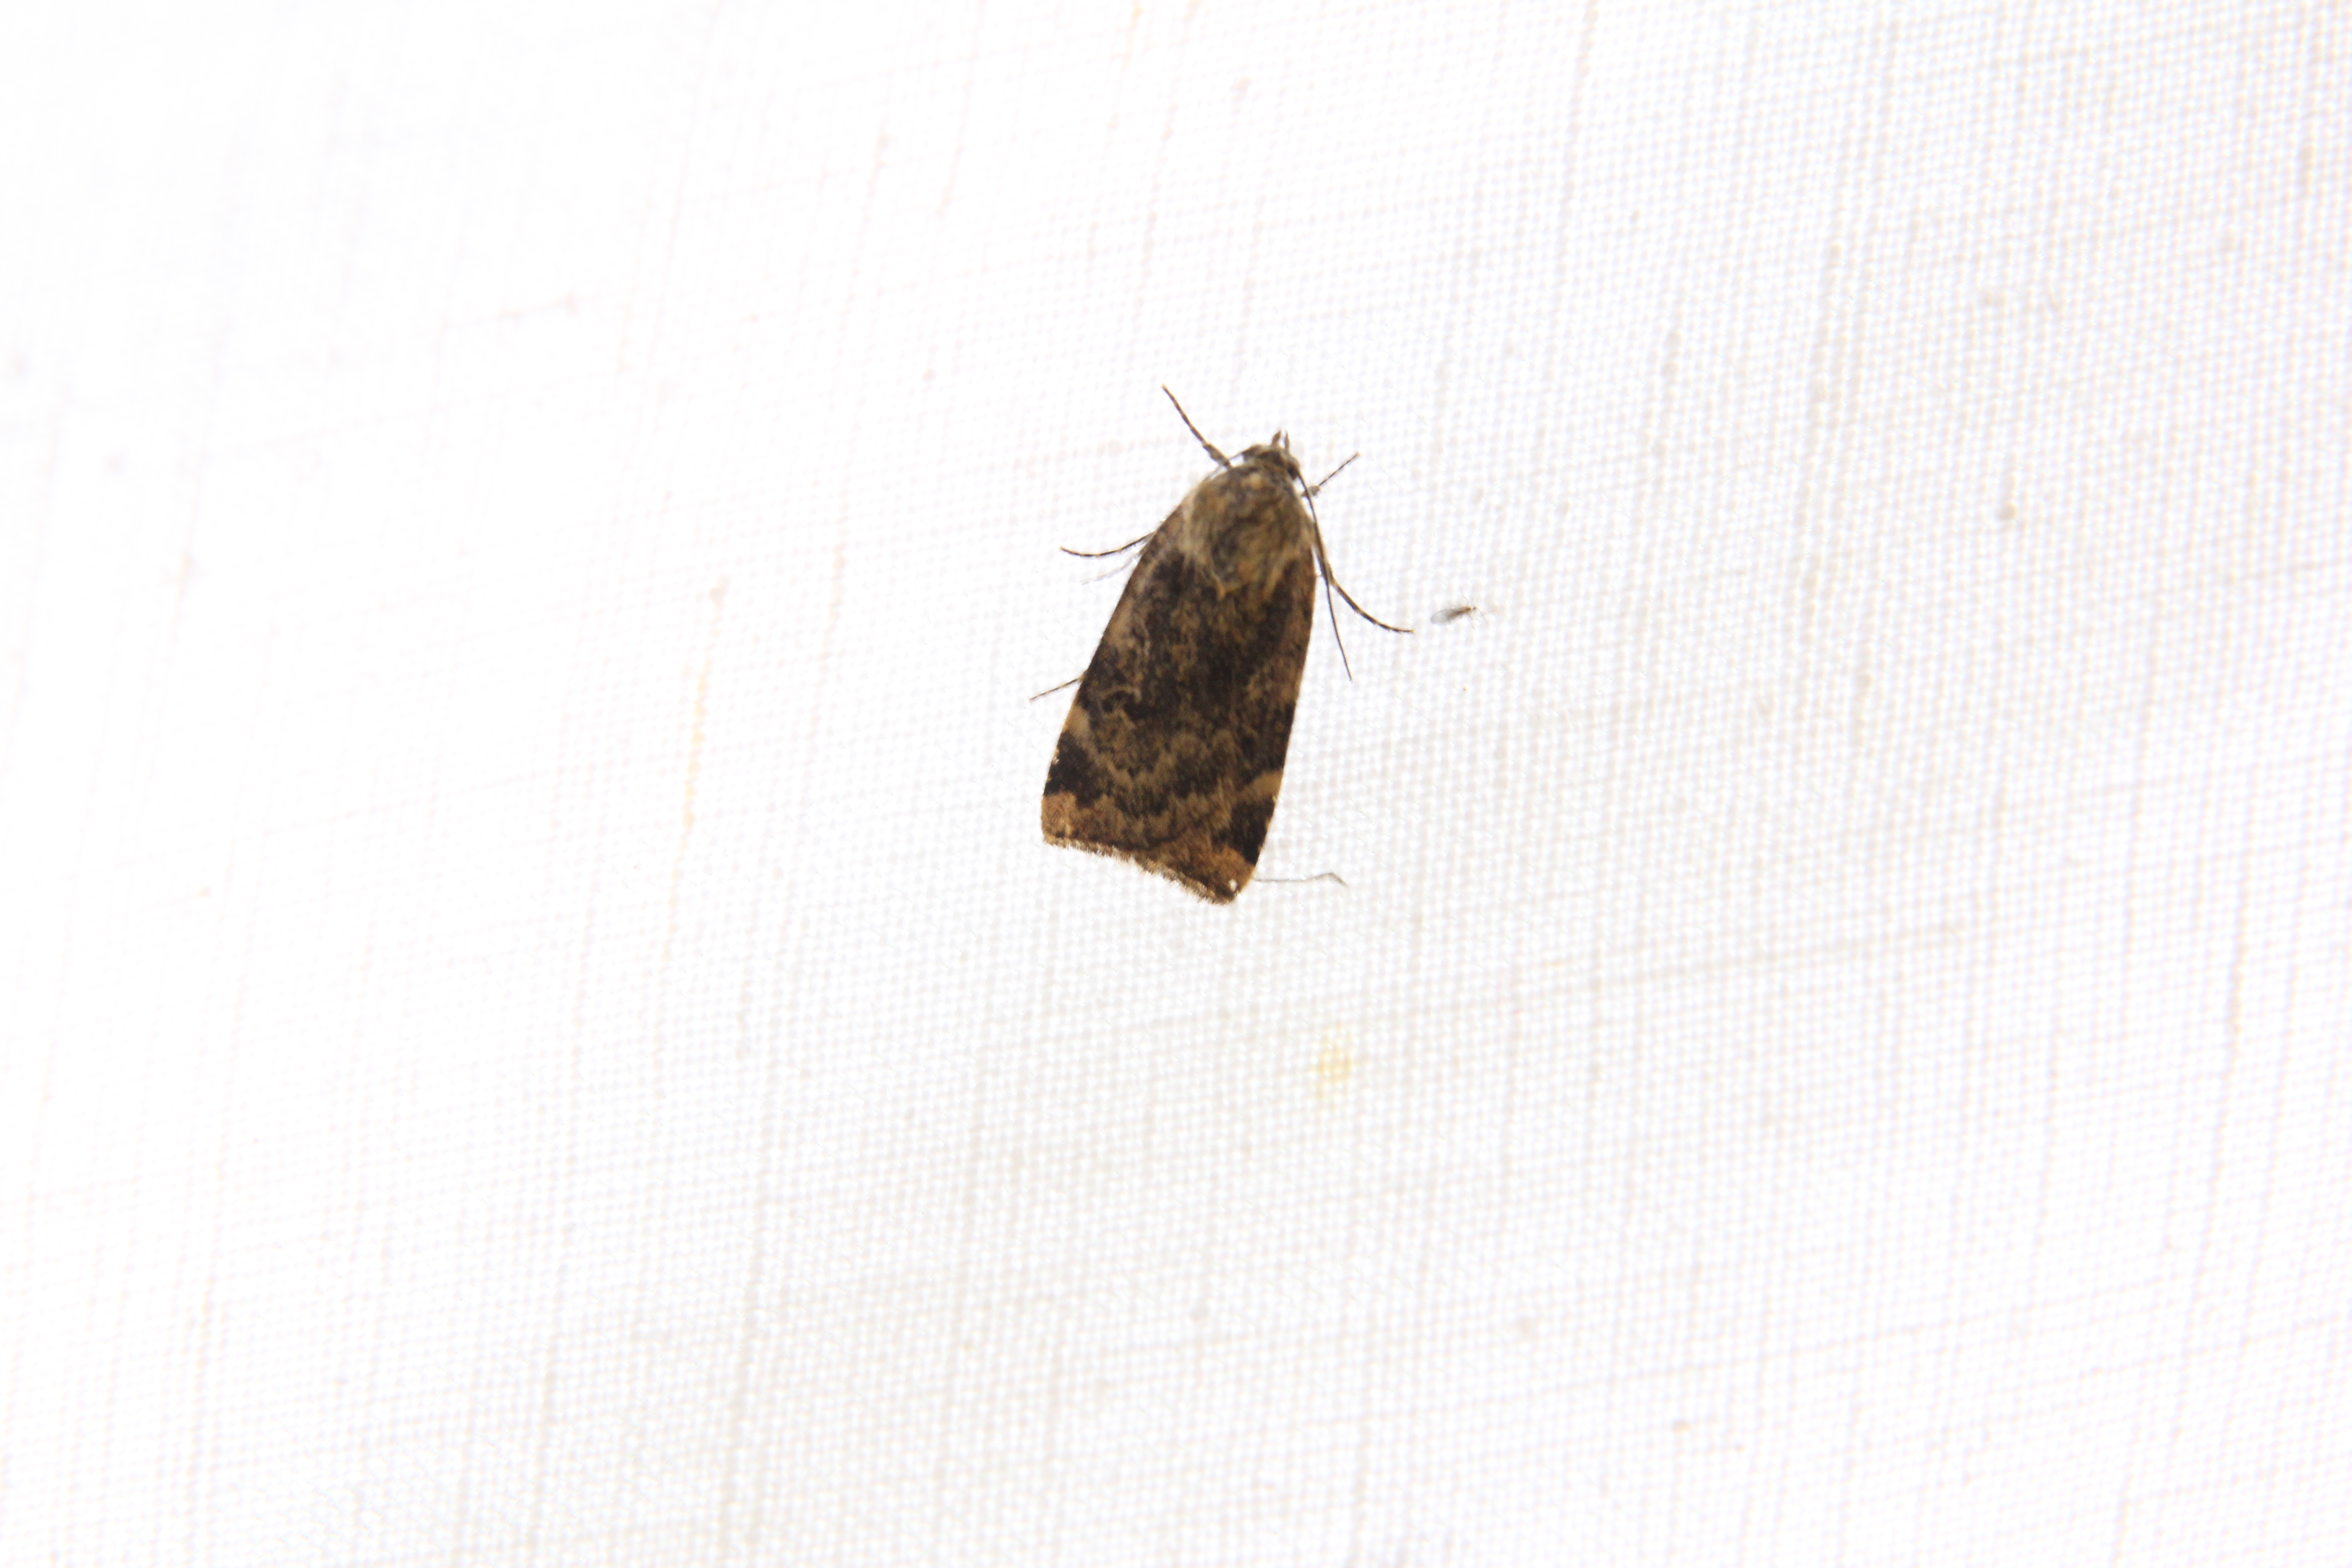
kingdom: Animalia
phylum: Arthropoda
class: Insecta
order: Lepidoptera
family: Noctuidae
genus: Cryptocala
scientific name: Cryptocala chardinyi
